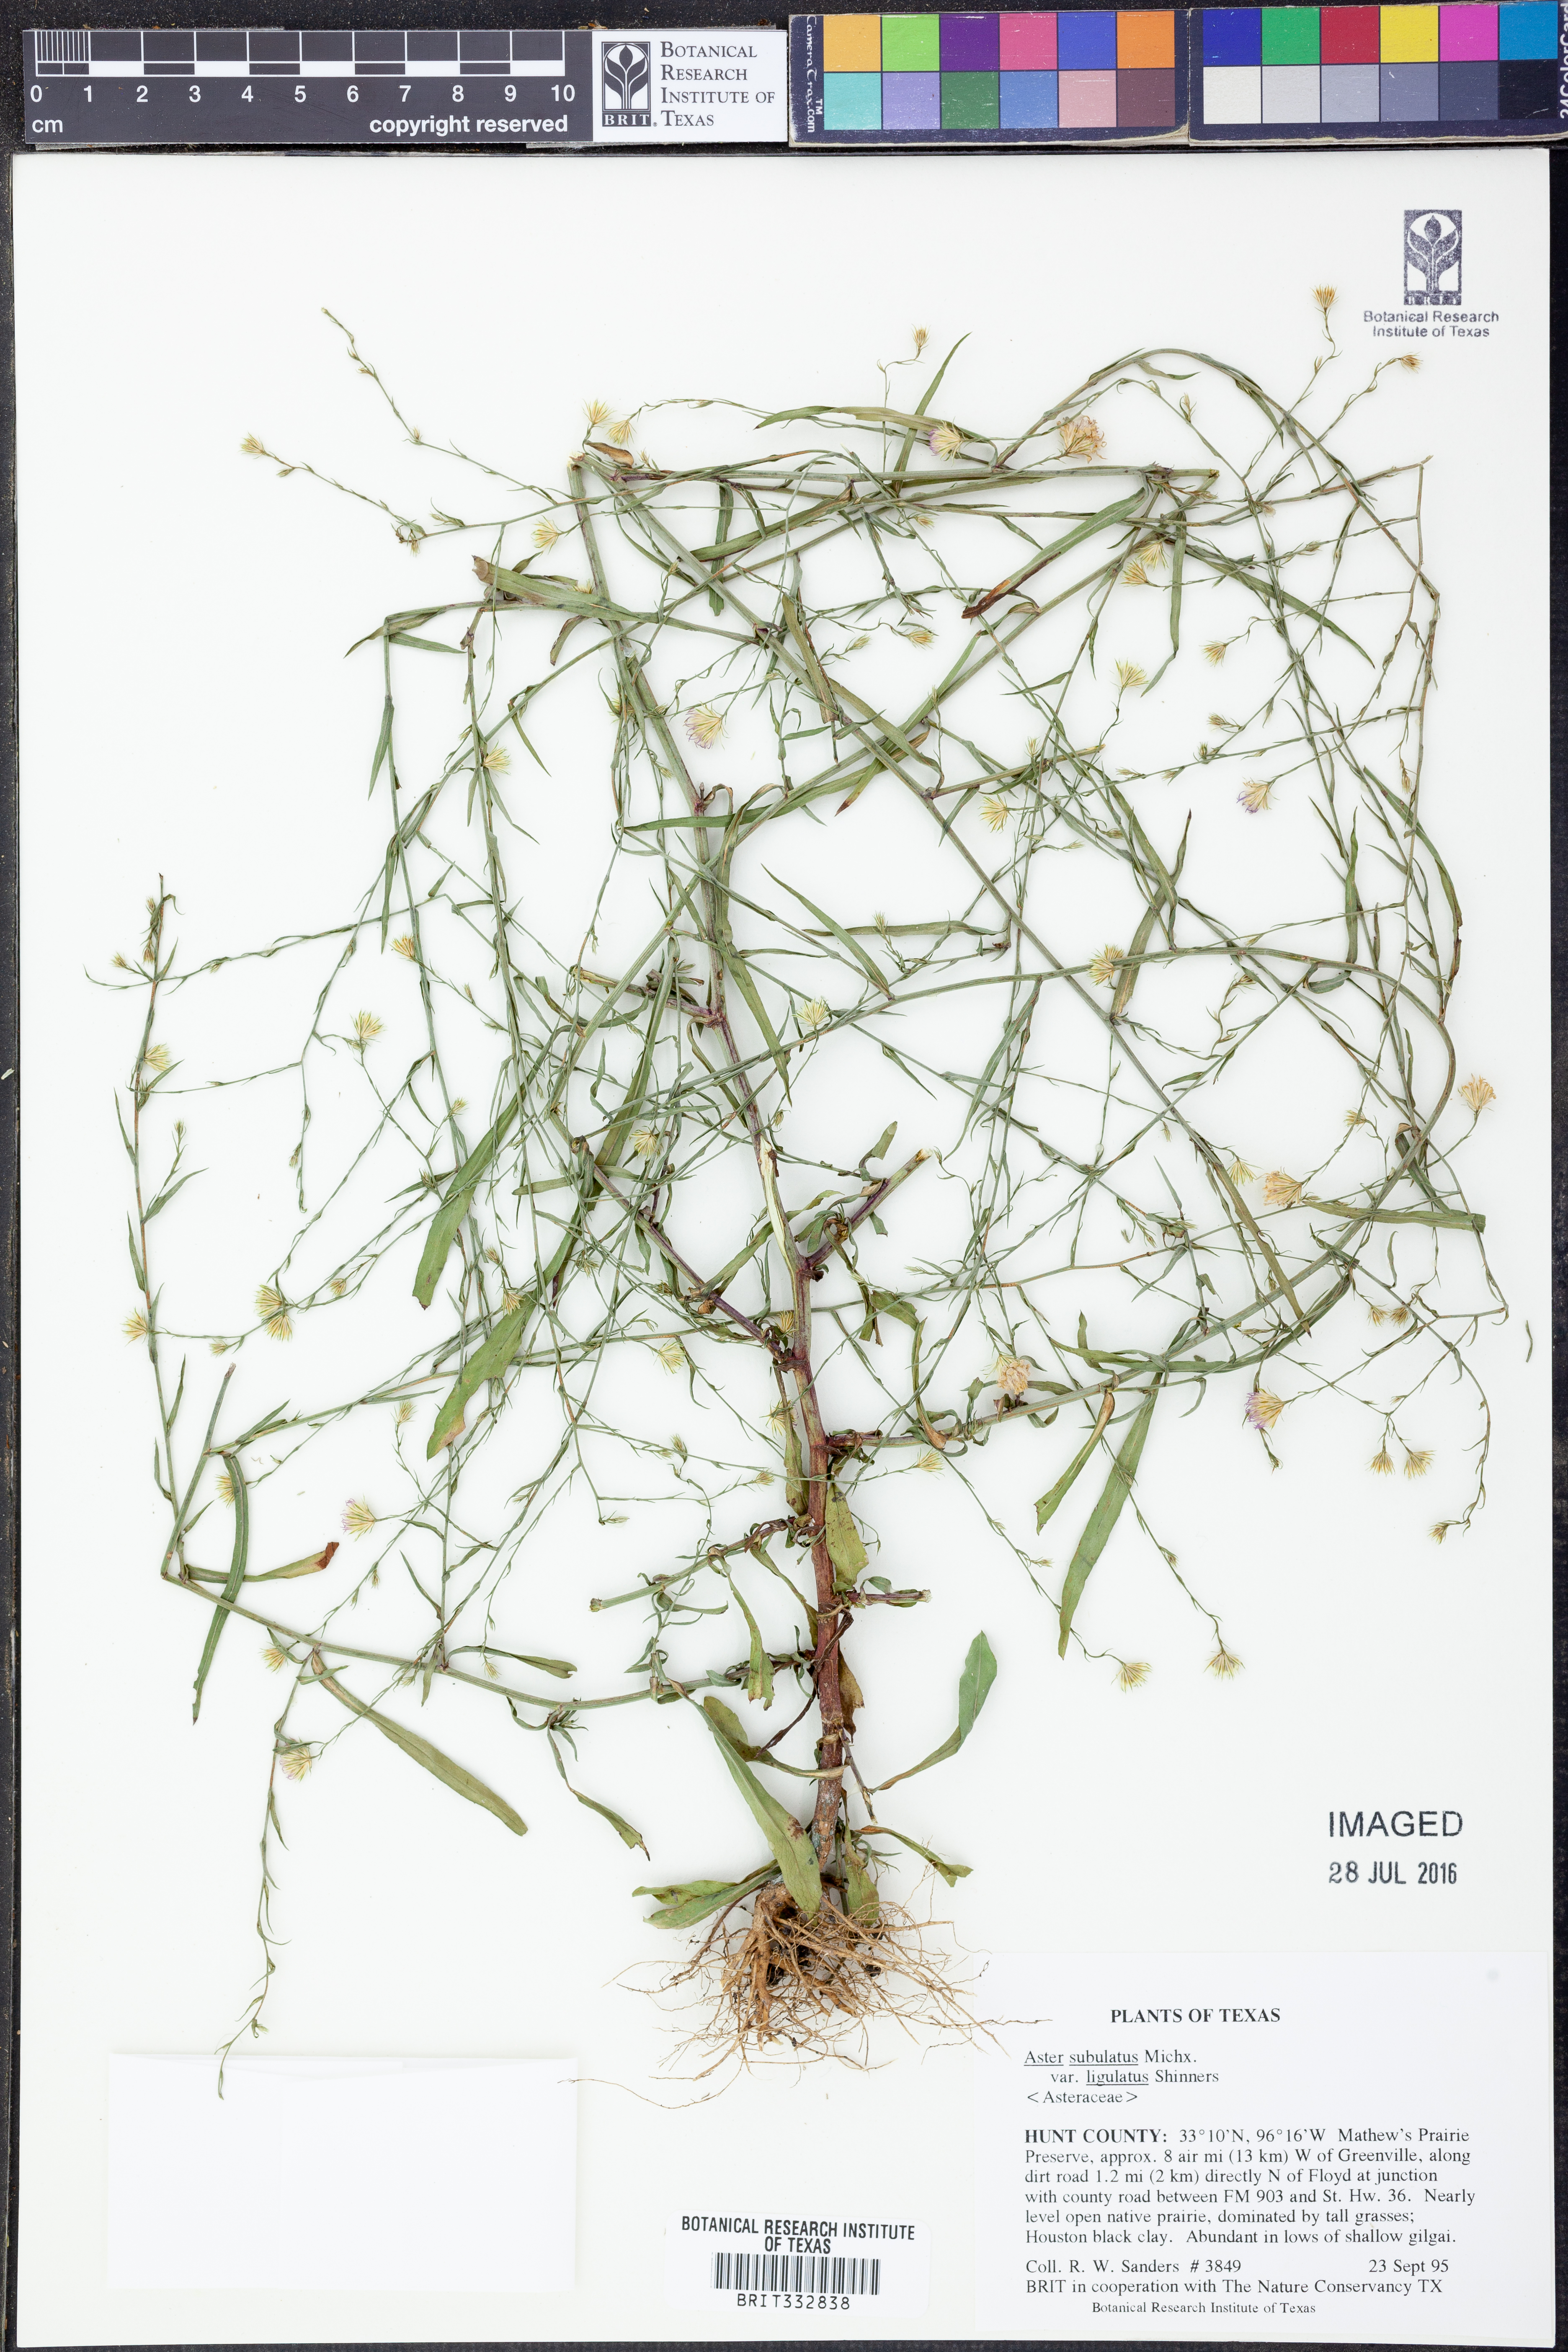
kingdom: Plantae
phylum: Tracheophyta
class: Magnoliopsida
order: Asterales
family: Asteraceae
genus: Symphyotrichum
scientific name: Symphyotrichum divaricatum
